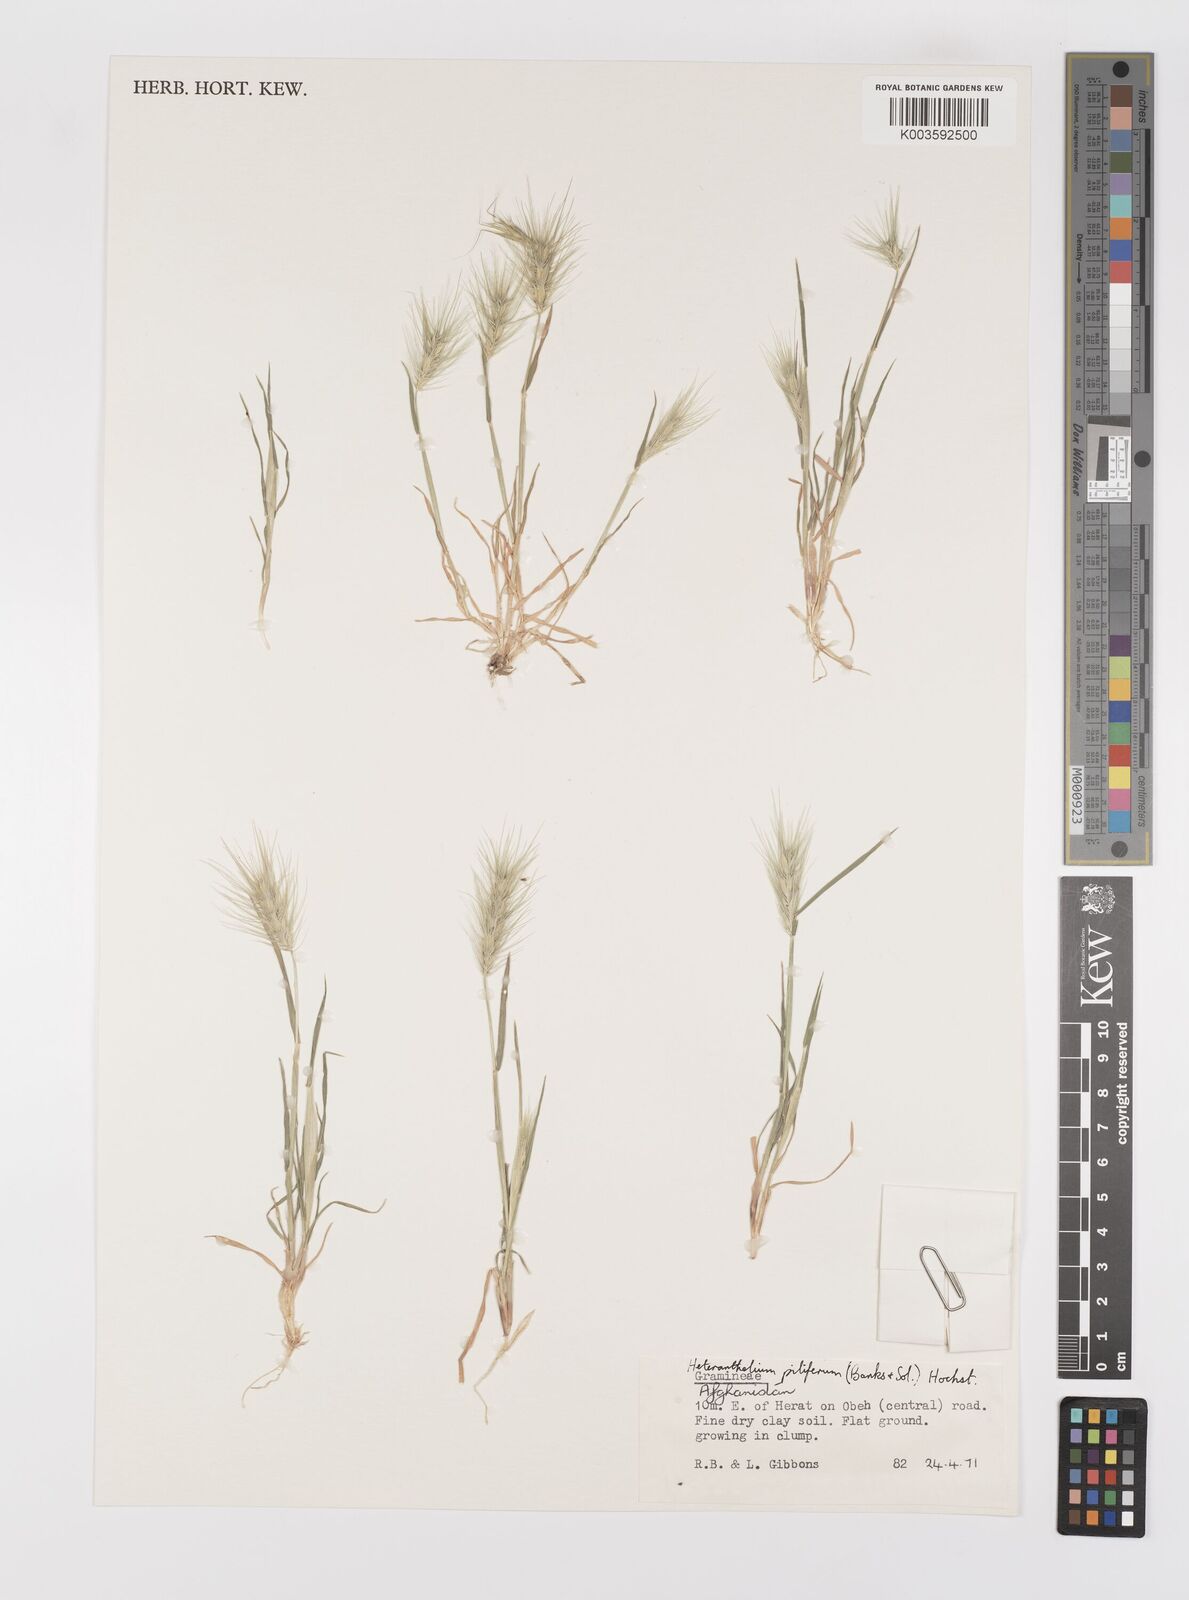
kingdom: Plantae
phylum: Tracheophyta
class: Liliopsida
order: Poales
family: Poaceae
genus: Heteranthelium
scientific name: Heteranthelium piliferum
